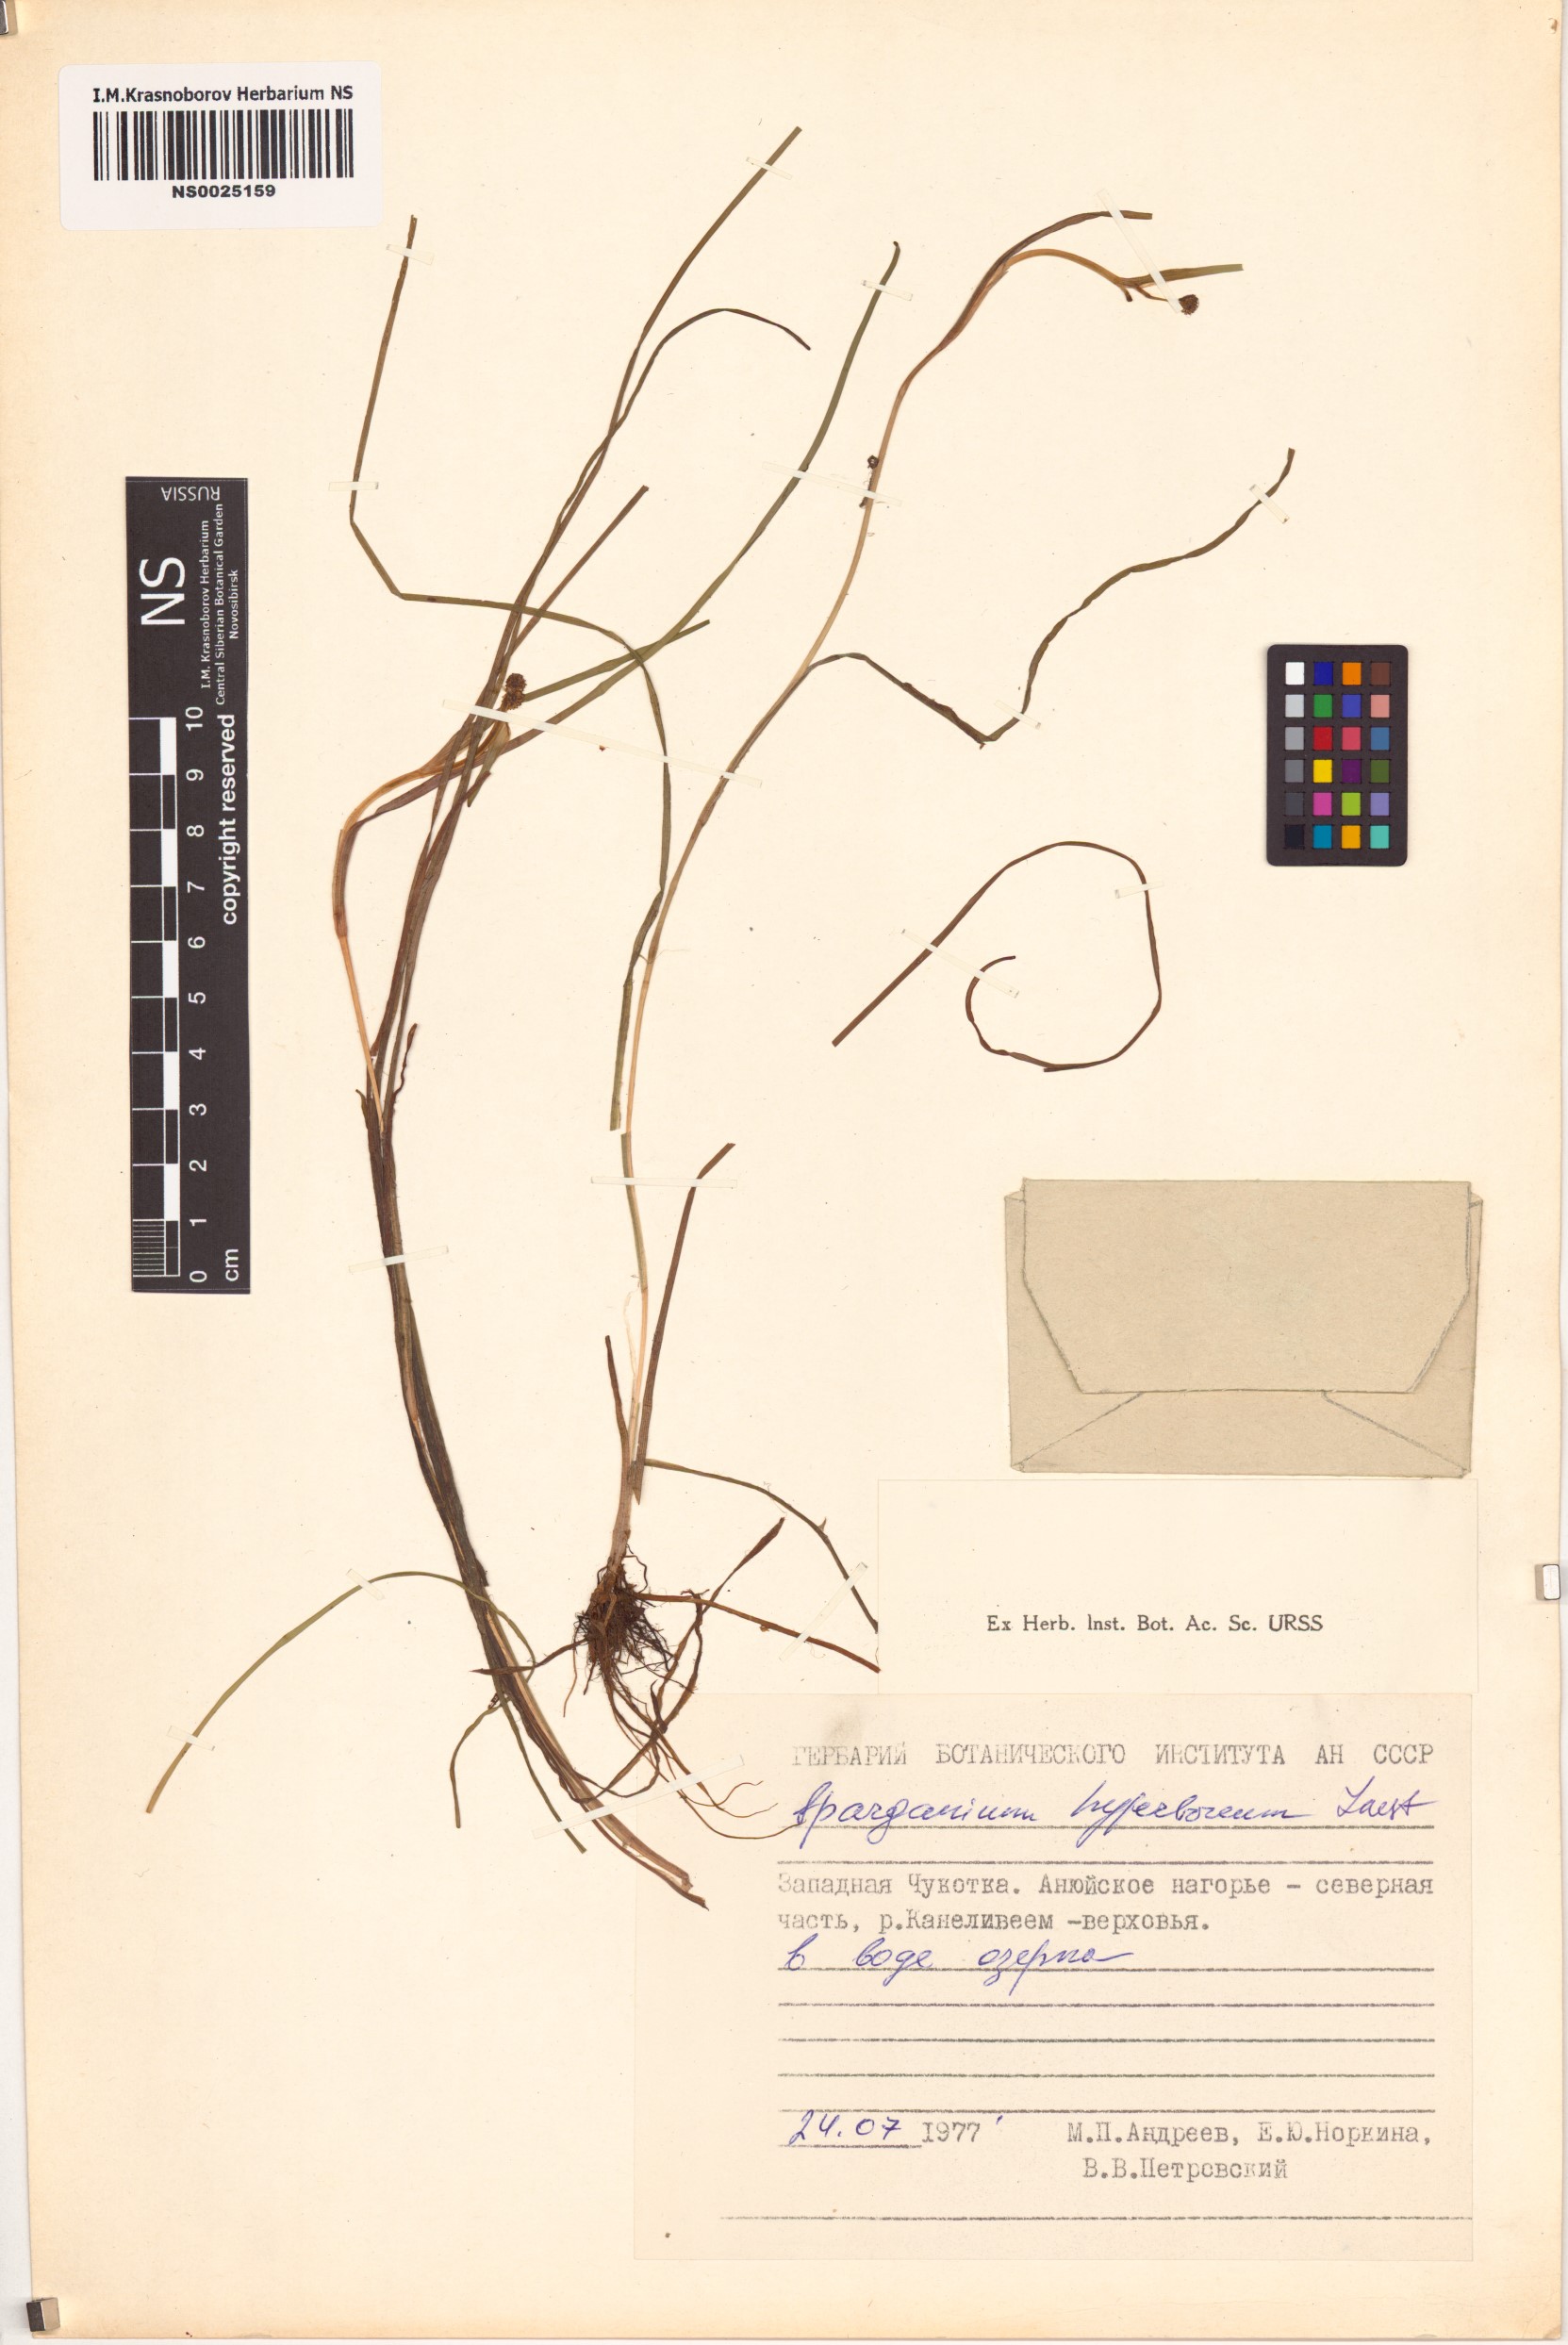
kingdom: Plantae
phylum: Tracheophyta
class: Liliopsida
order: Poales
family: Typhaceae
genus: Sparganium
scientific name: Sparganium hyperboreum
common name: Arctic burreed
